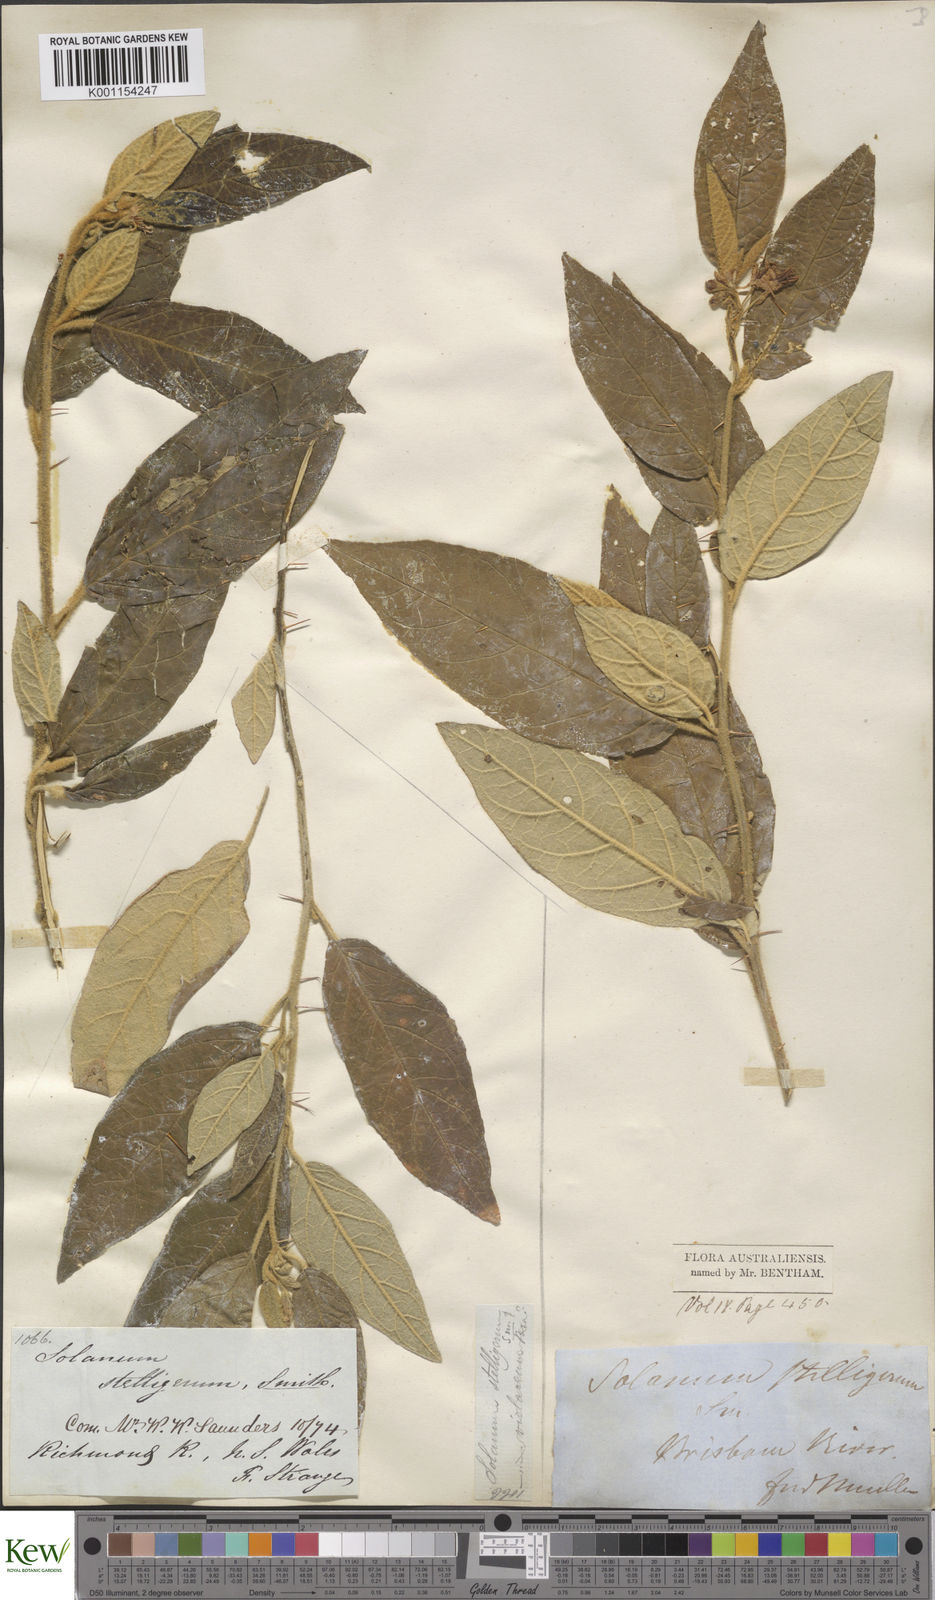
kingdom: Plantae
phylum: Tracheophyta
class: Magnoliopsida
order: Solanales
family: Solanaceae
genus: Solanum
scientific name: Solanum stelligerum
